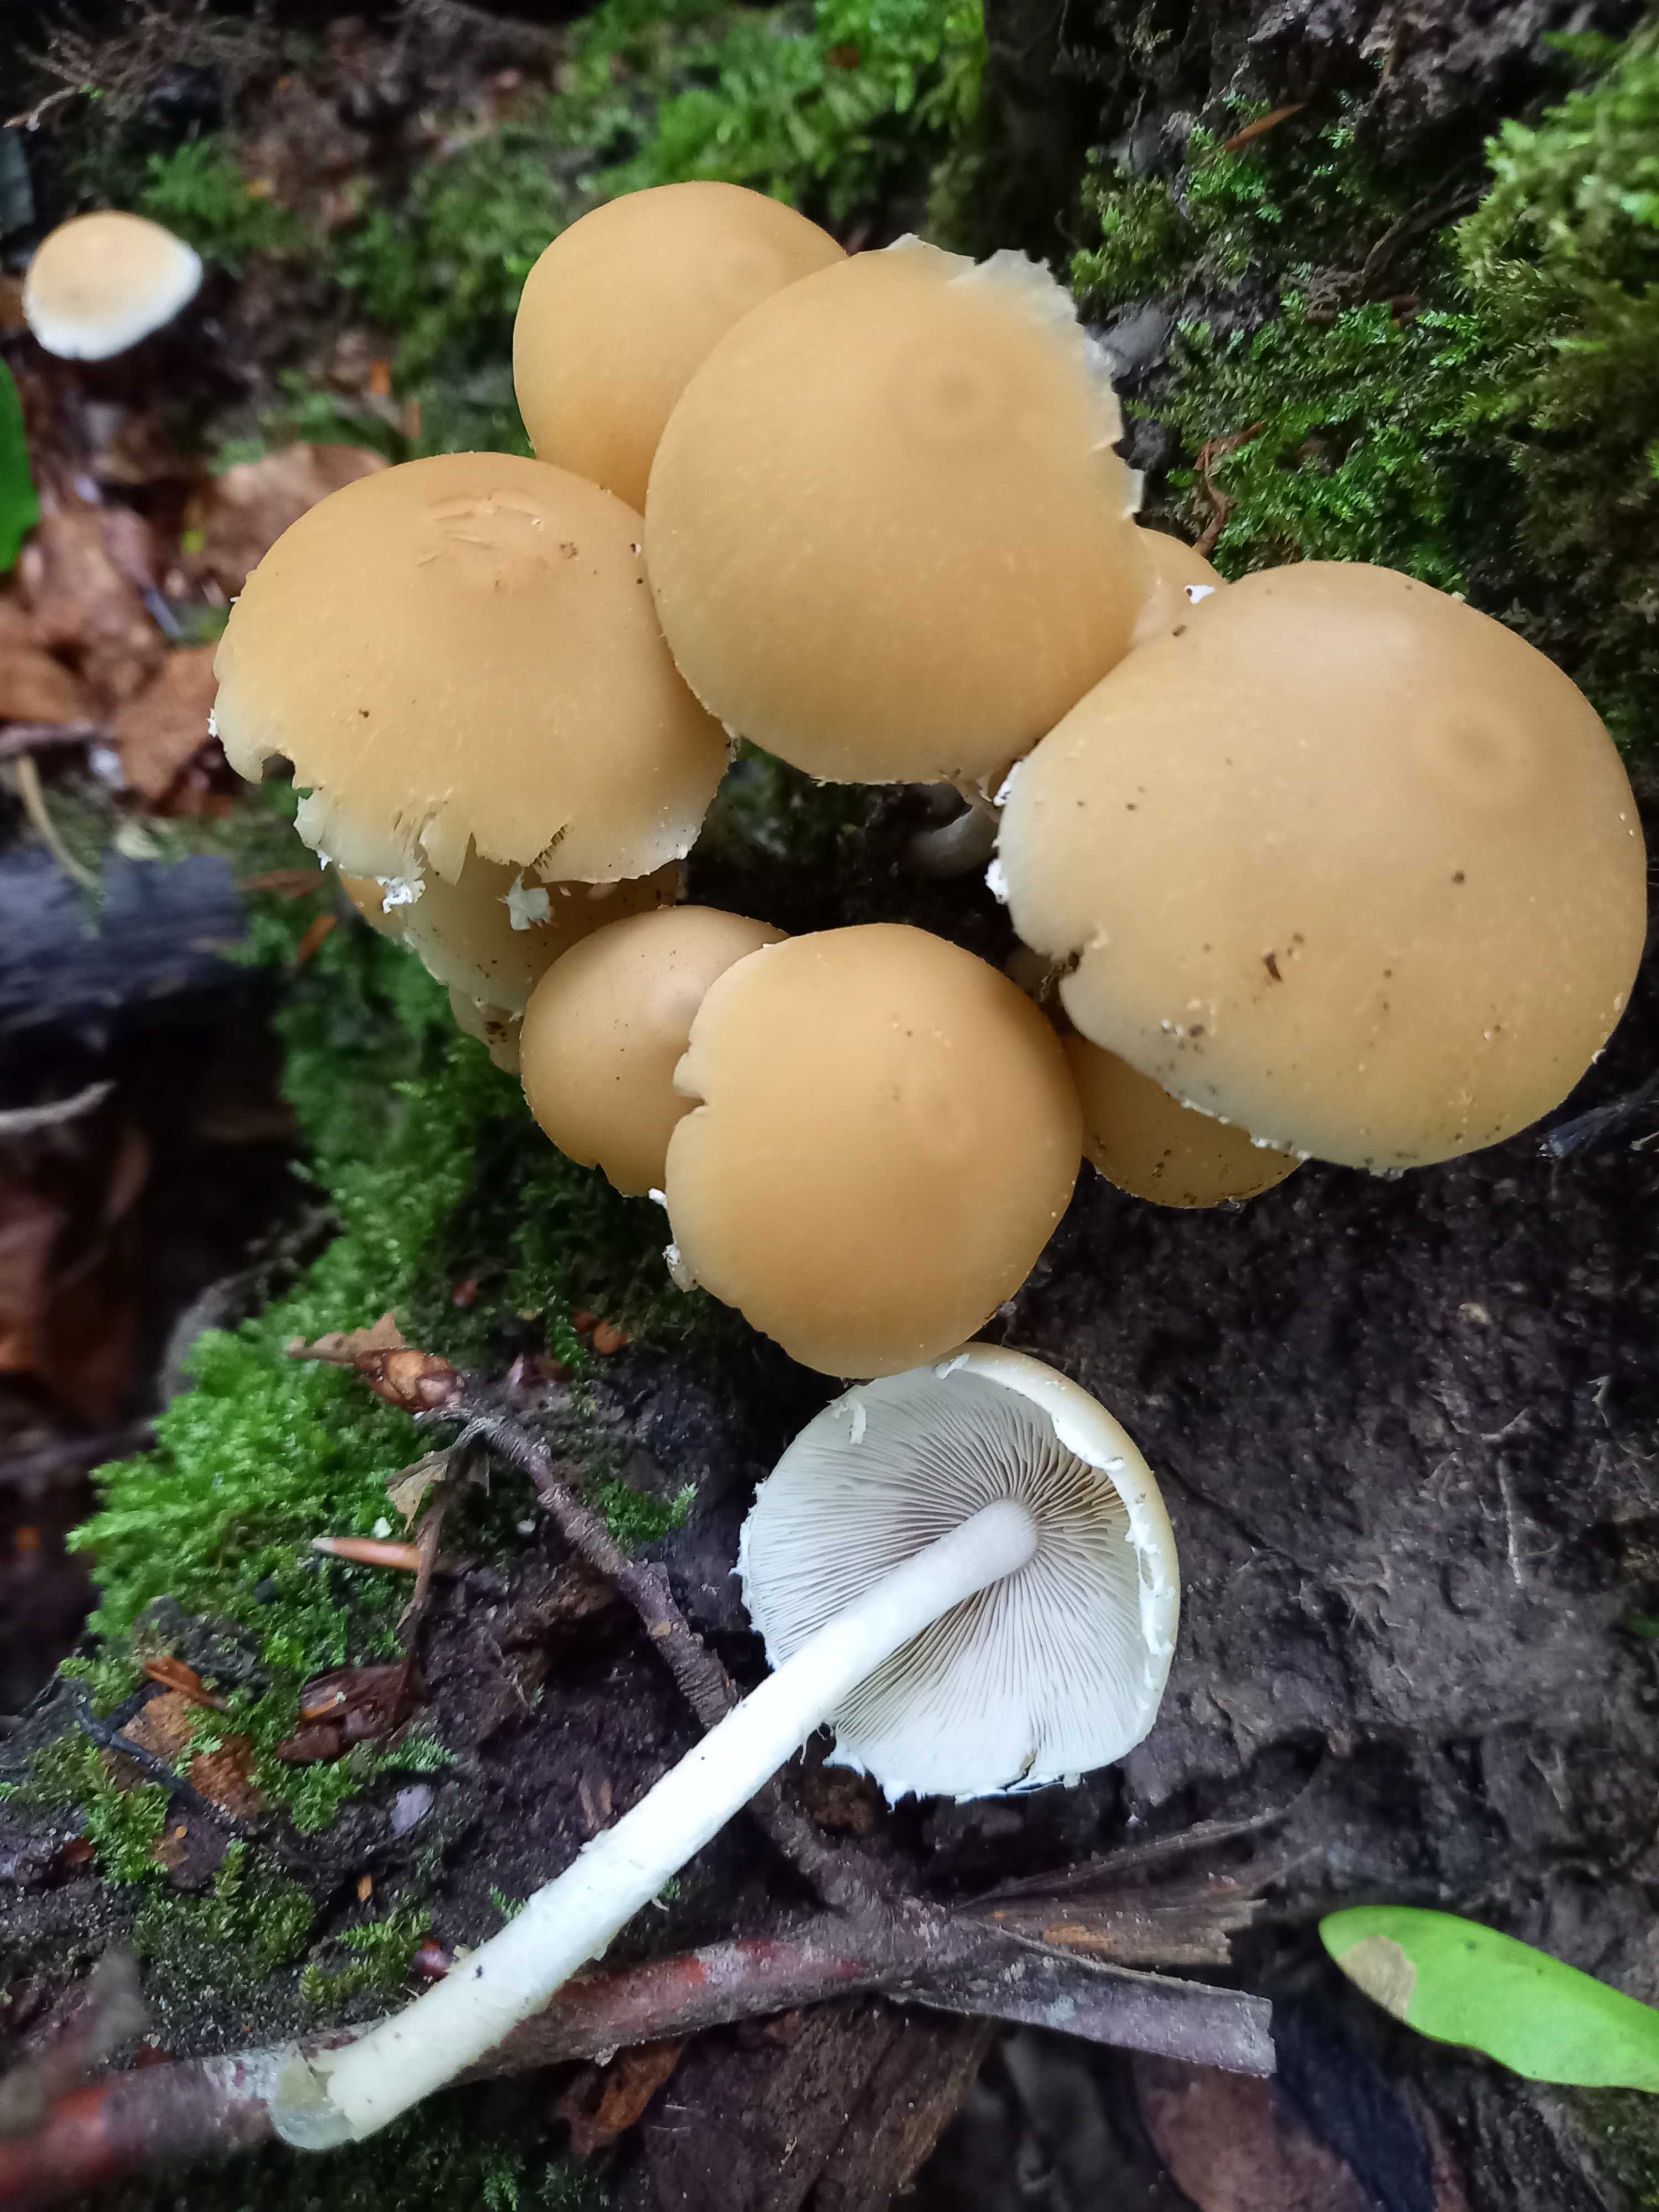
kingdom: Fungi
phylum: Basidiomycota
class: Agaricomycetes
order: Agaricales
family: Psathyrellaceae
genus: Candolleomyces
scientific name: Candolleomyces candolleanus
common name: Candolles mørkhat
